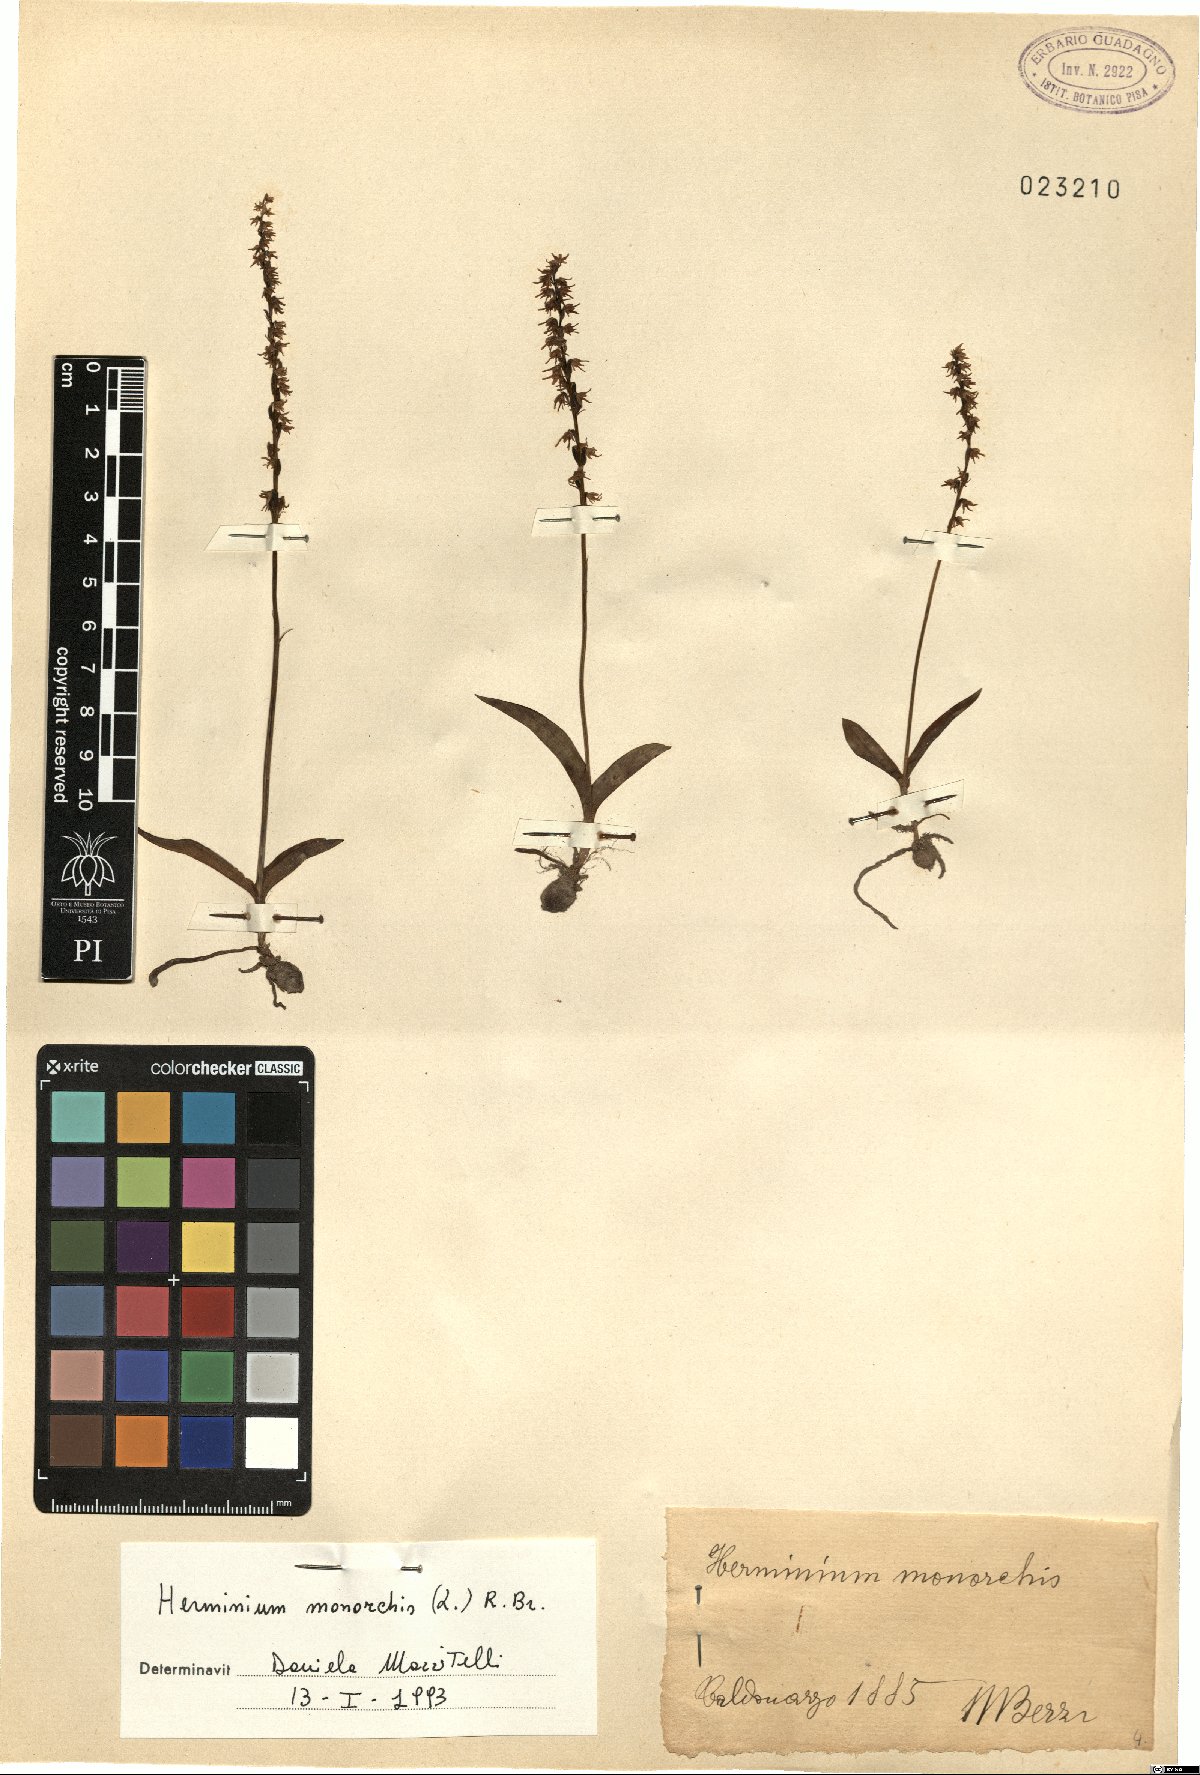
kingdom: Plantae
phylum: Tracheophyta
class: Liliopsida
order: Asparagales
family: Orchidaceae
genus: Herminium
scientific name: Herminium monorchis
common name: Musk orchid
